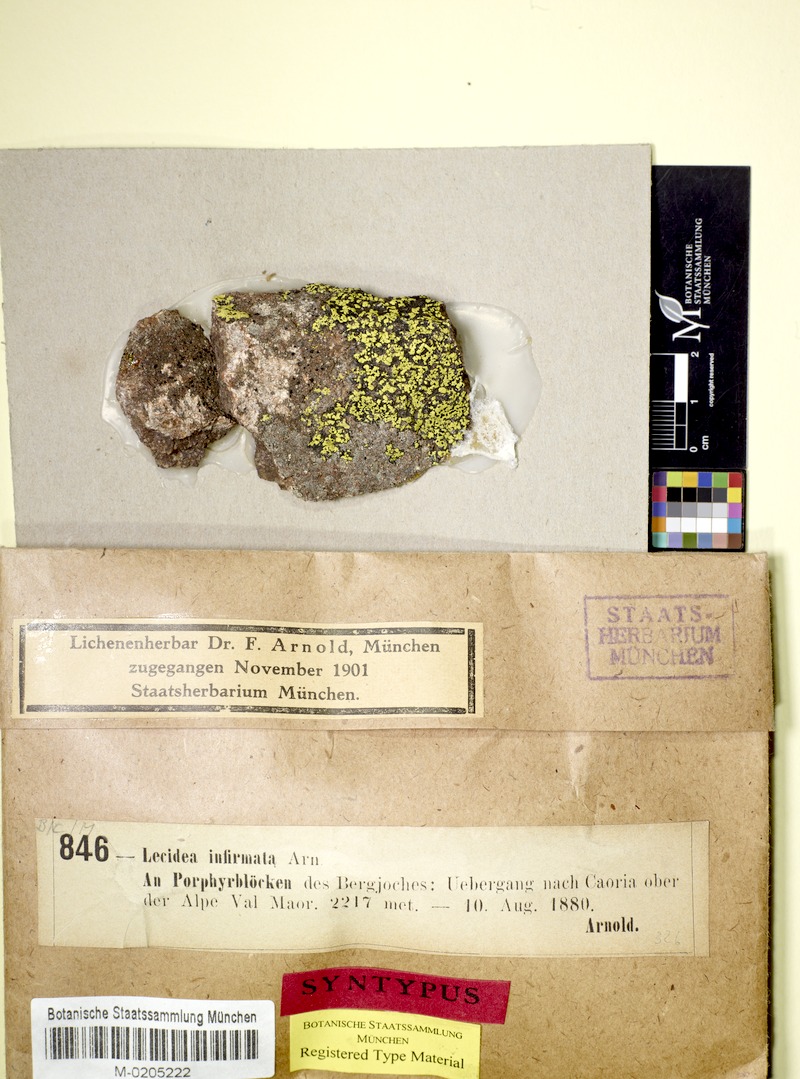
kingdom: Fungi
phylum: Ascomycota
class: Lecanoromycetes
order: Lecideales
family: Lecideaceae
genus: Lecidea
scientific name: Lecidea infirmata
